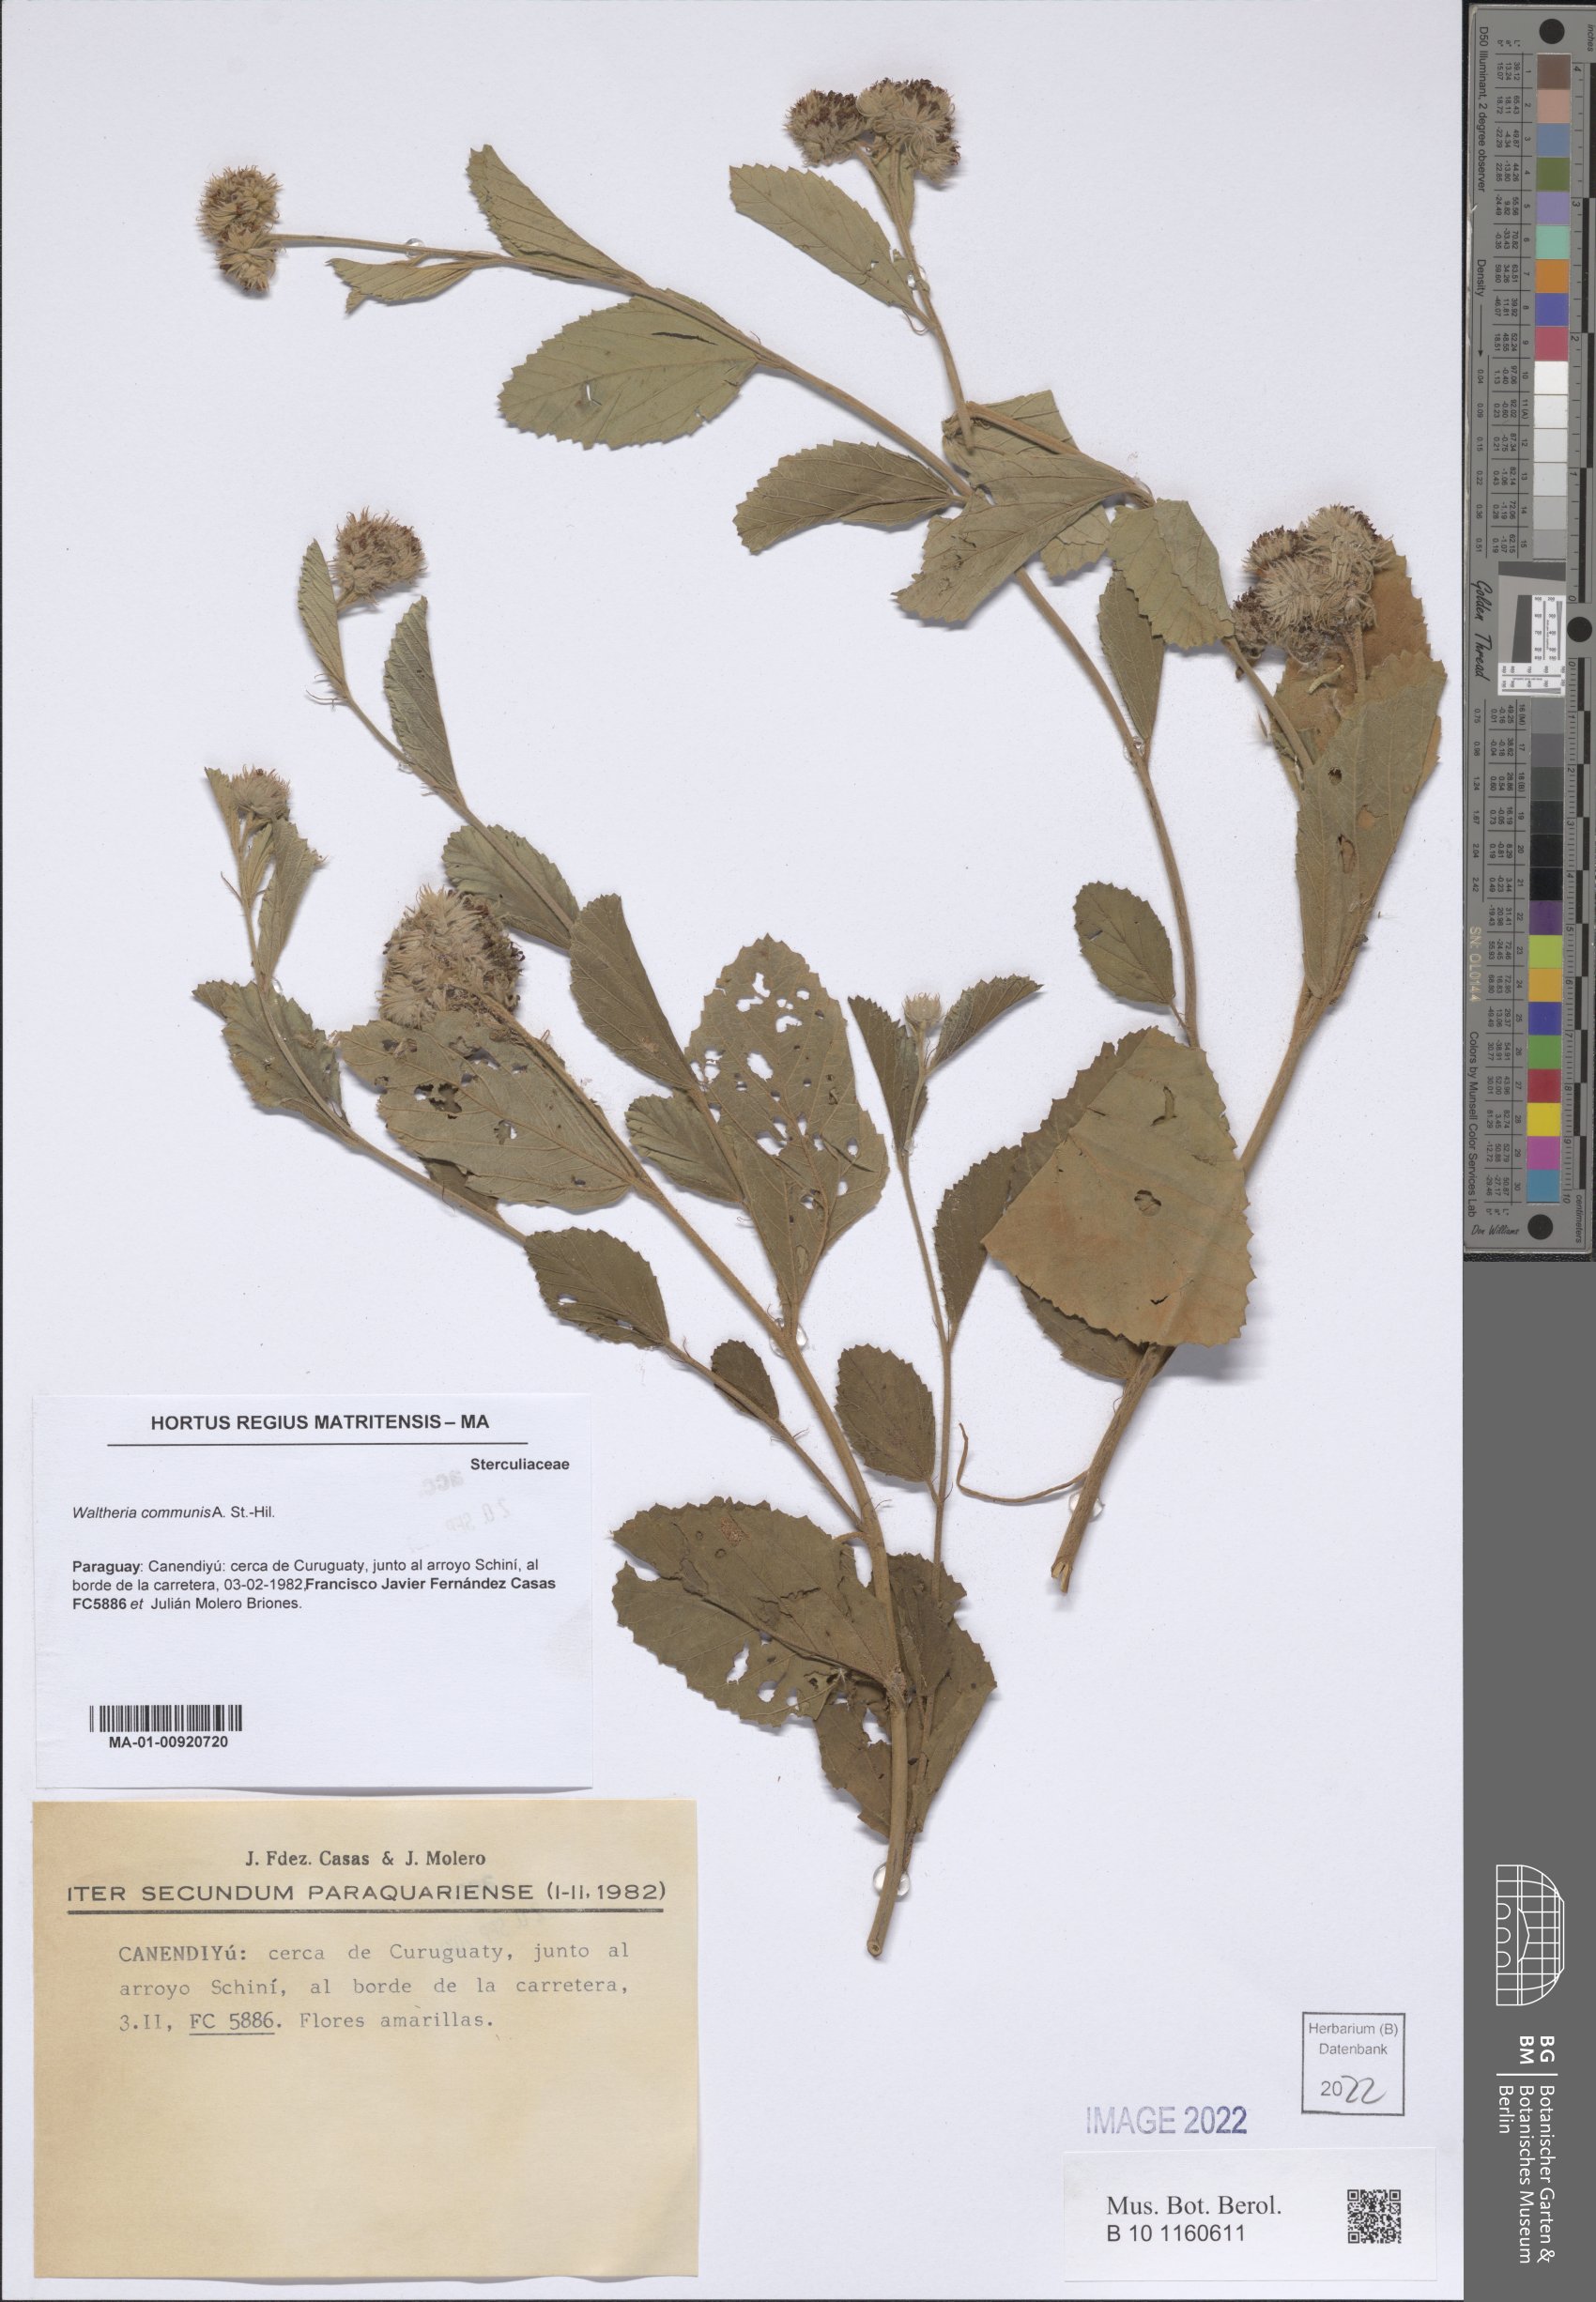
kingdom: Plantae
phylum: Tracheophyta
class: Magnoliopsida
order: Malvales
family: Malvaceae
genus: Waltheria
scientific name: Waltheria communis
